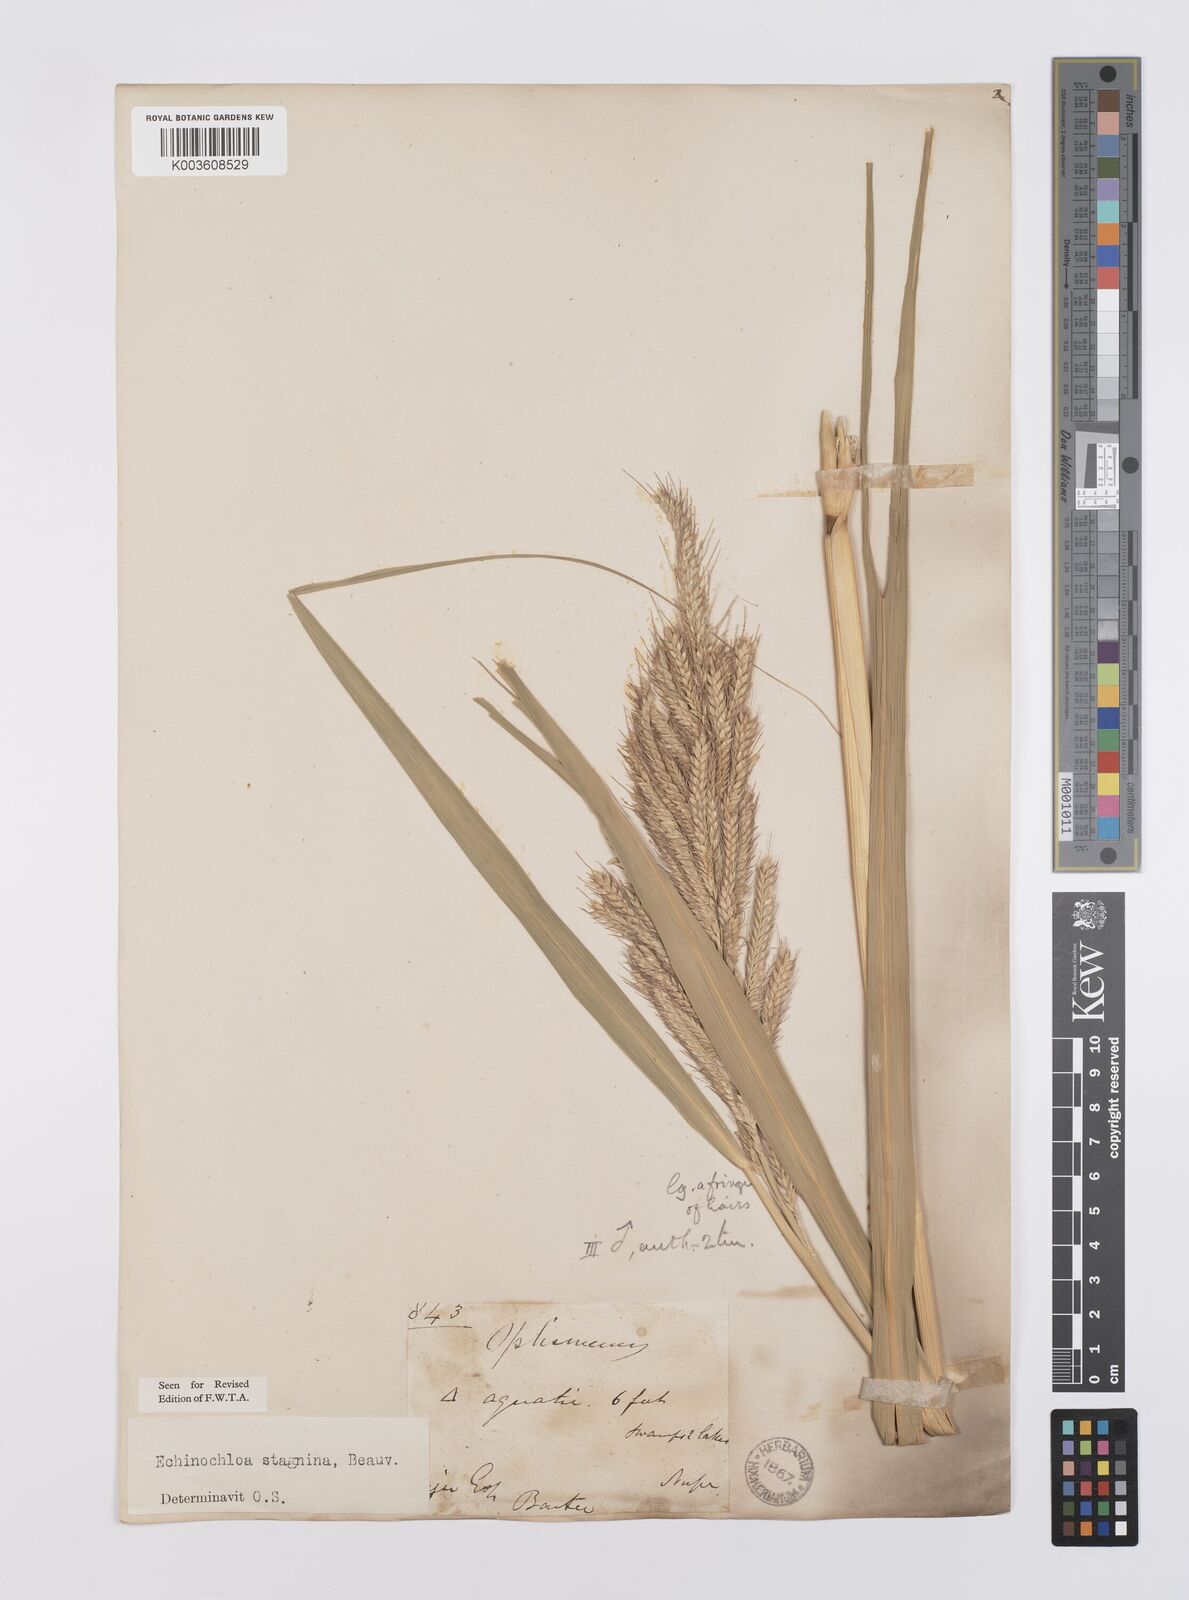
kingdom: Plantae
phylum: Tracheophyta
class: Liliopsida
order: Poales
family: Poaceae
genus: Echinochloa
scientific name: Echinochloa stagnina
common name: Burgu grass
